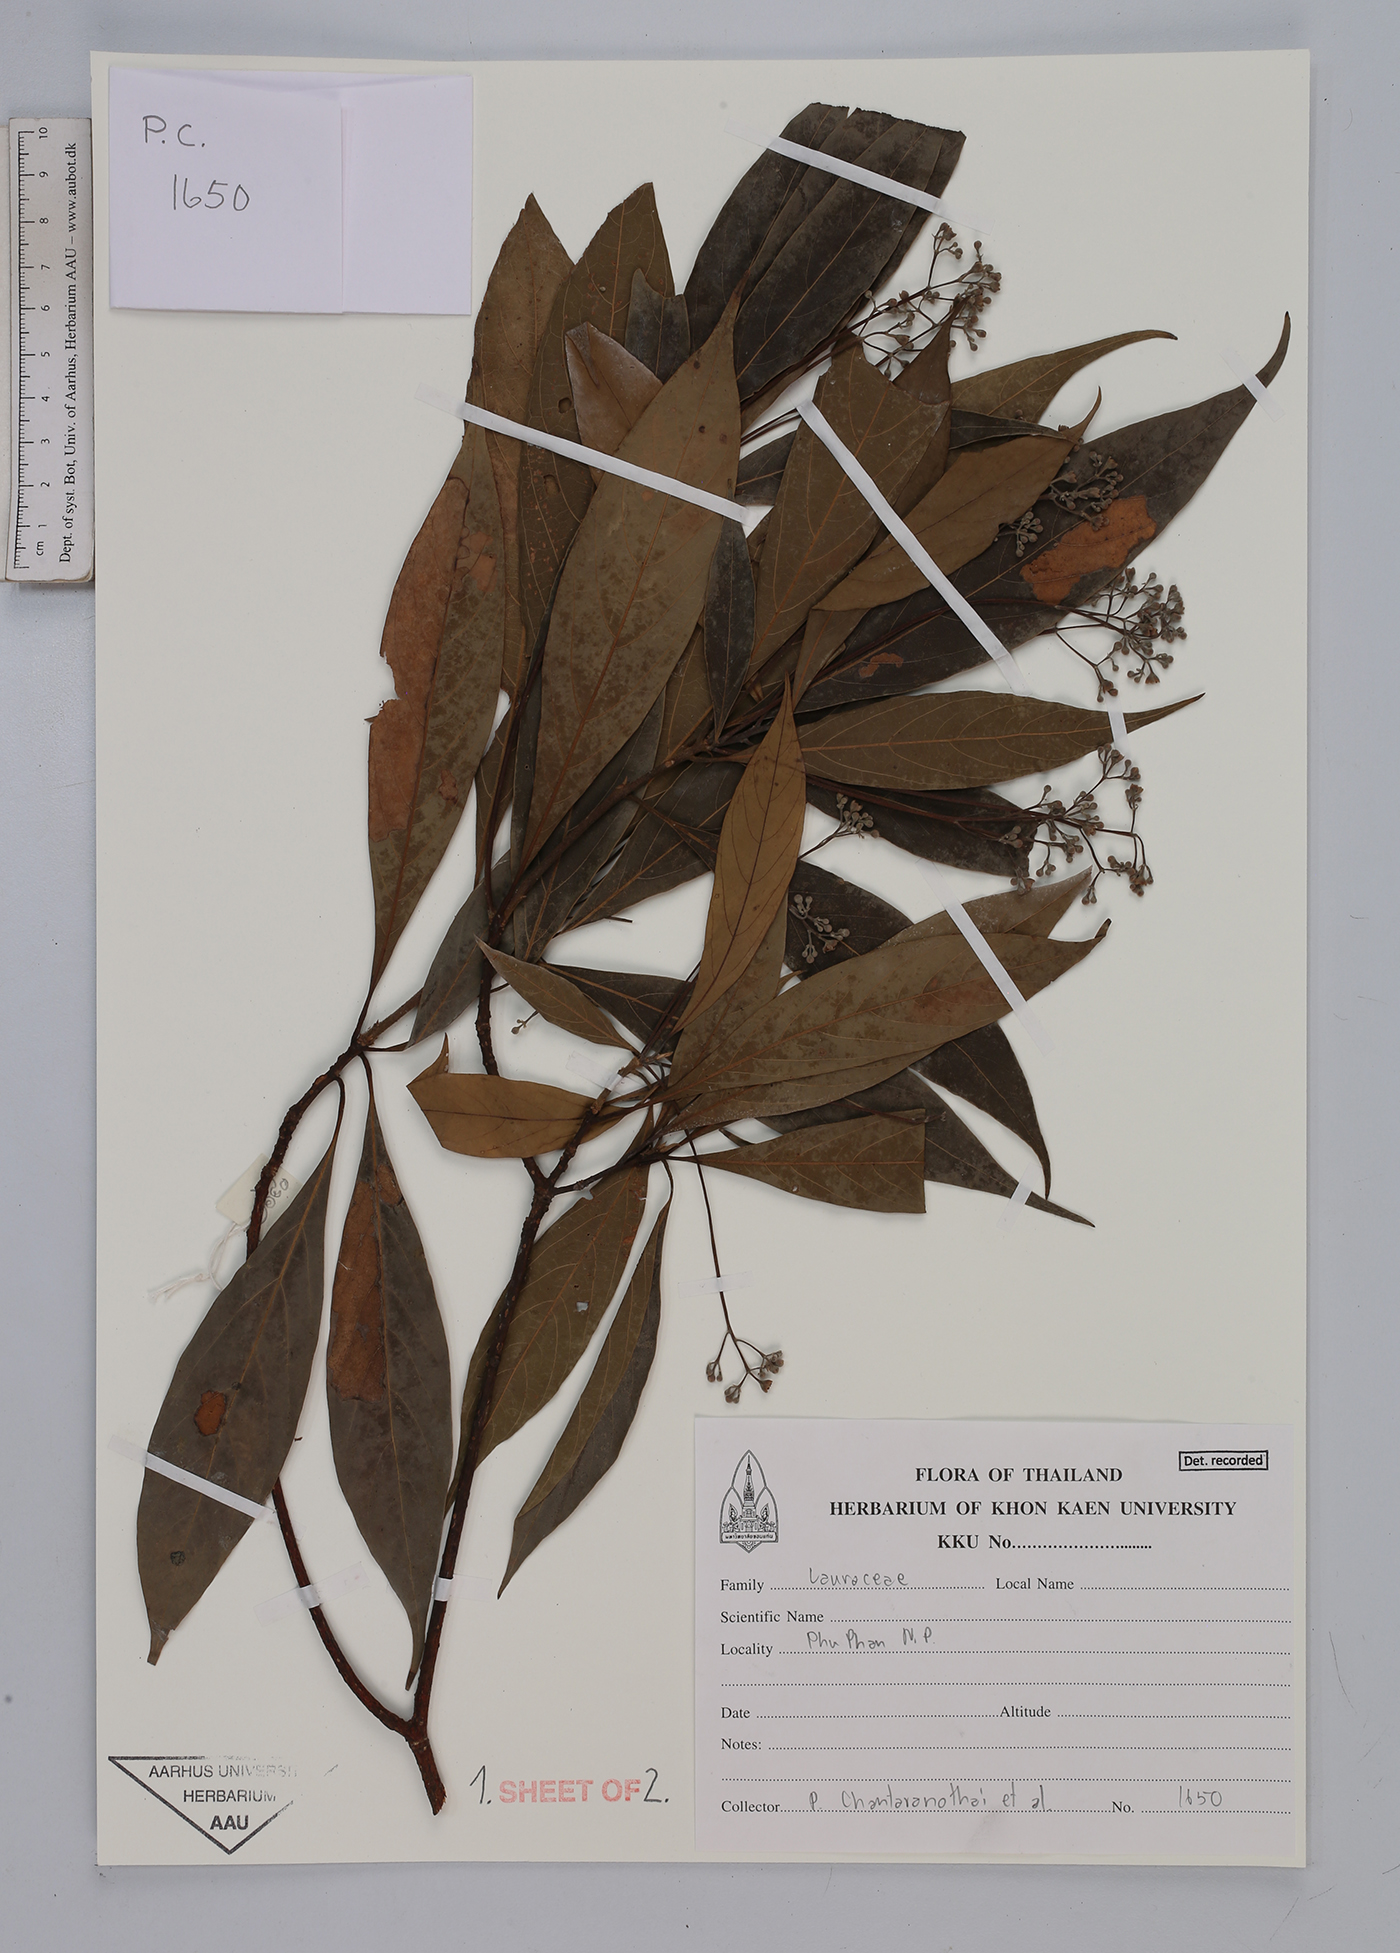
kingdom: Plantae
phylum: Tracheophyta
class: Magnoliopsida
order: Laurales
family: Lauraceae
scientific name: Lauraceae
